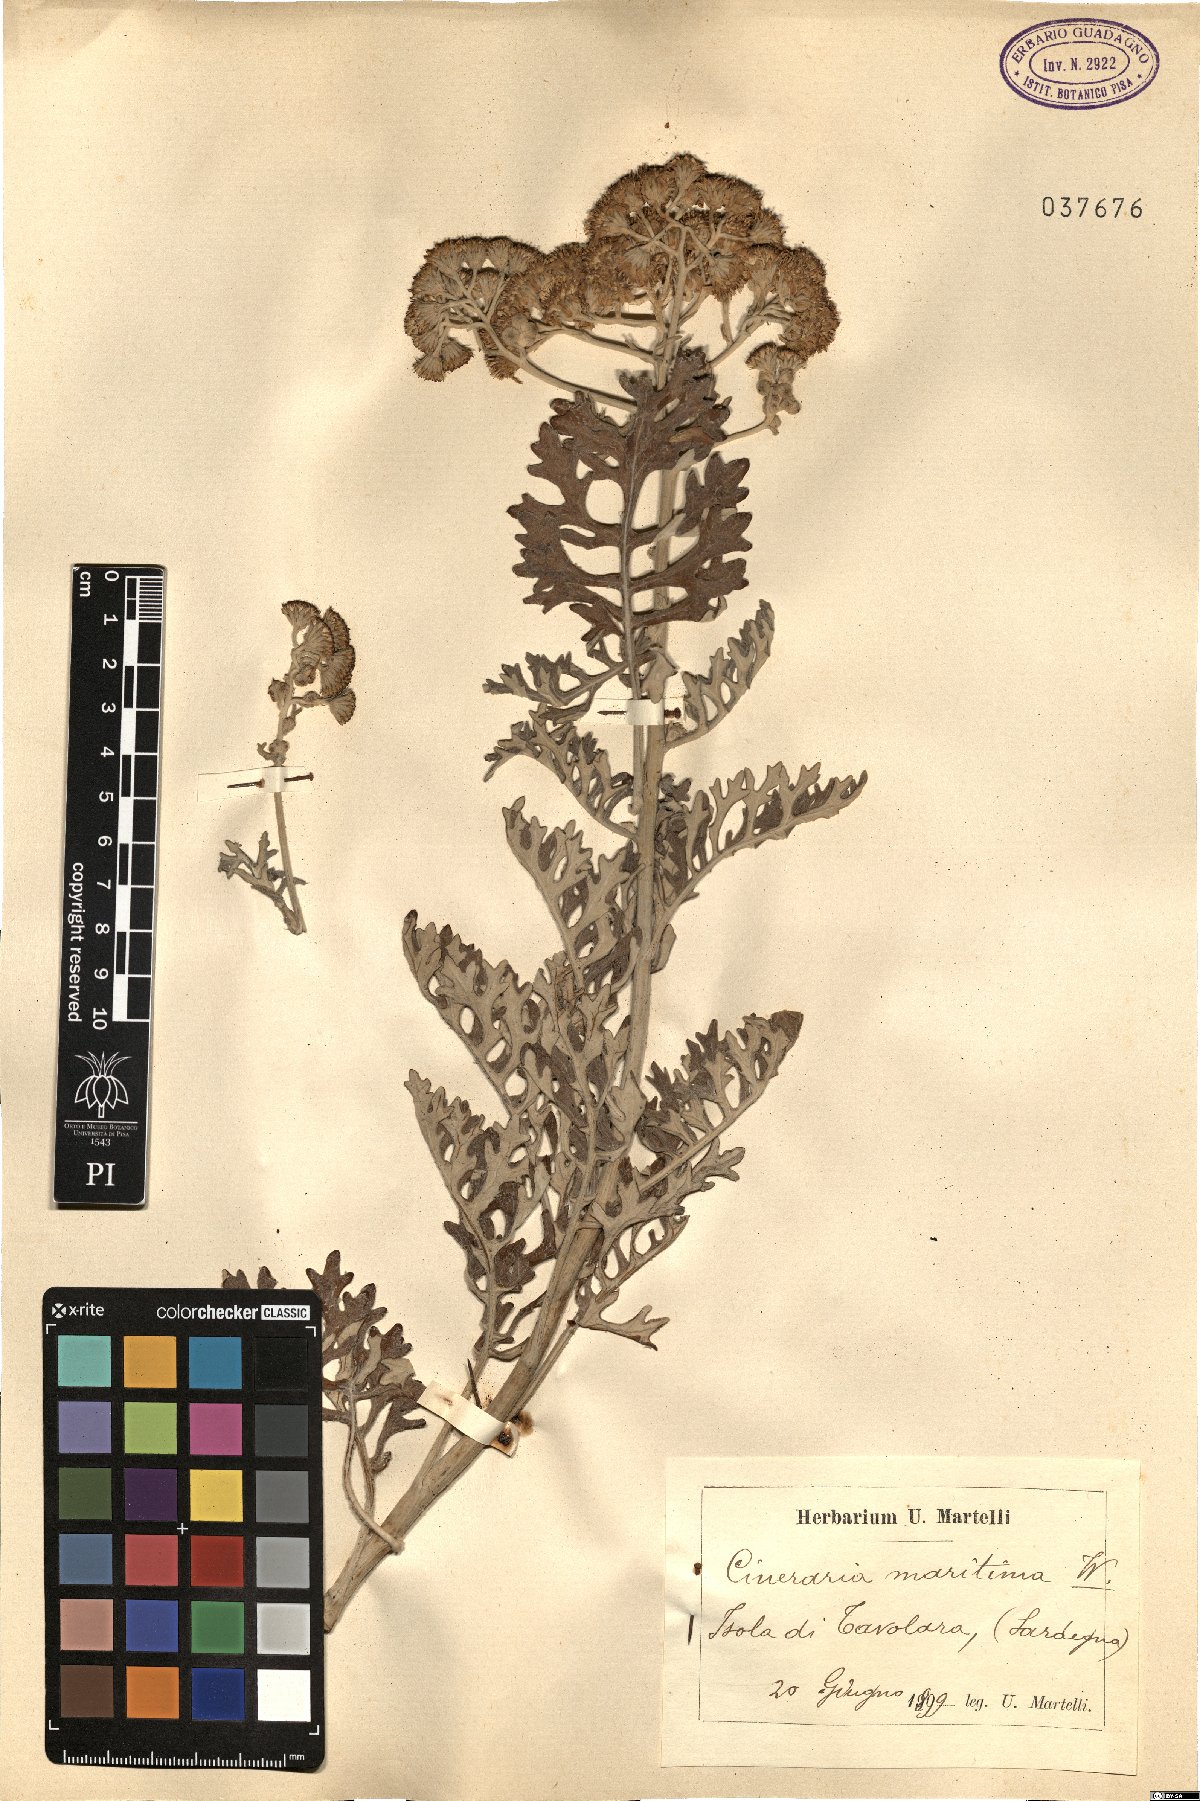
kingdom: Plantae
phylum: Tracheophyta
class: Magnoliopsida
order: Asterales
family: Asteraceae
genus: Jacobaea
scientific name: Jacobaea maritima
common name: Silver ragwort
